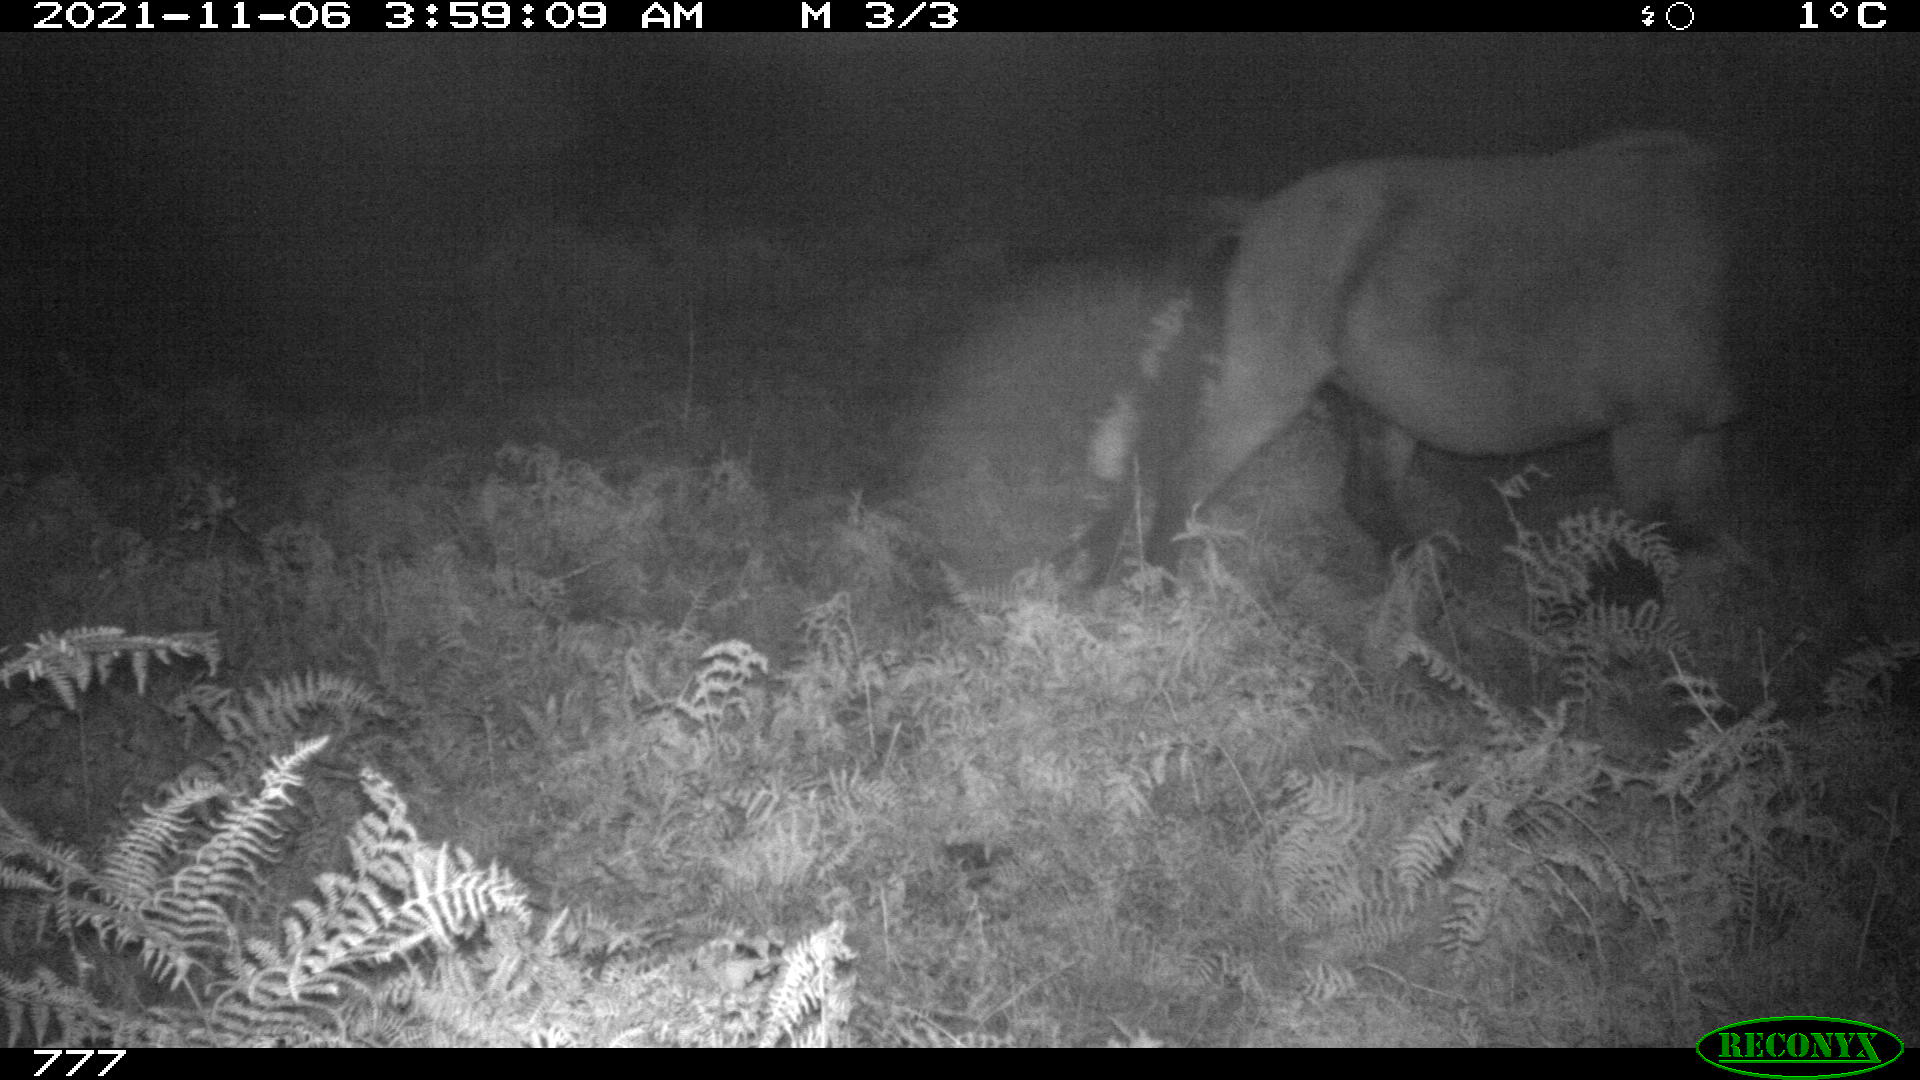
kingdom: Animalia
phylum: Chordata
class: Mammalia
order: Perissodactyla
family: Equidae
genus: Equus
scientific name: Equus caballus
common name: Horse
